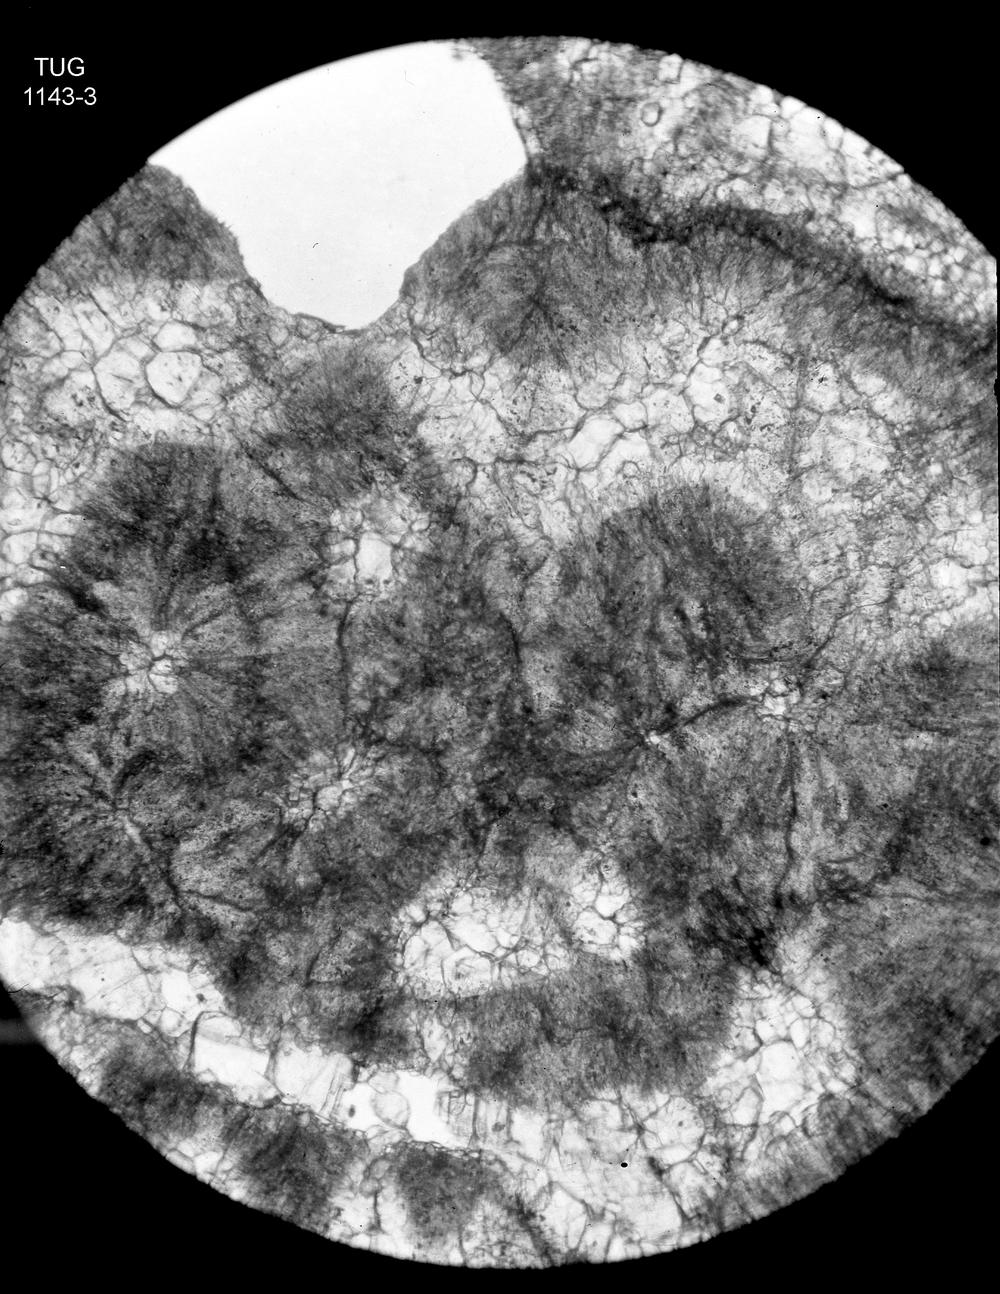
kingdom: Animalia
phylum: Nemertea
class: Hoplonemertea
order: Monostilifera
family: Amphiporidae
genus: Amphipora
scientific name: Amphipora Caunopora ramosa
